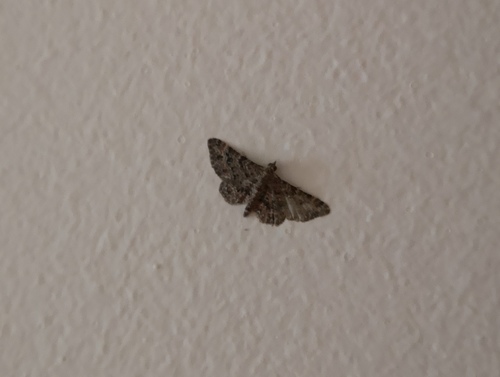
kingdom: Animalia
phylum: Arthropoda
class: Insecta
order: Lepidoptera
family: Geometridae
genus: Gymnoscelis
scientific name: Gymnoscelis rufifasciata
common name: Double-striped pug
